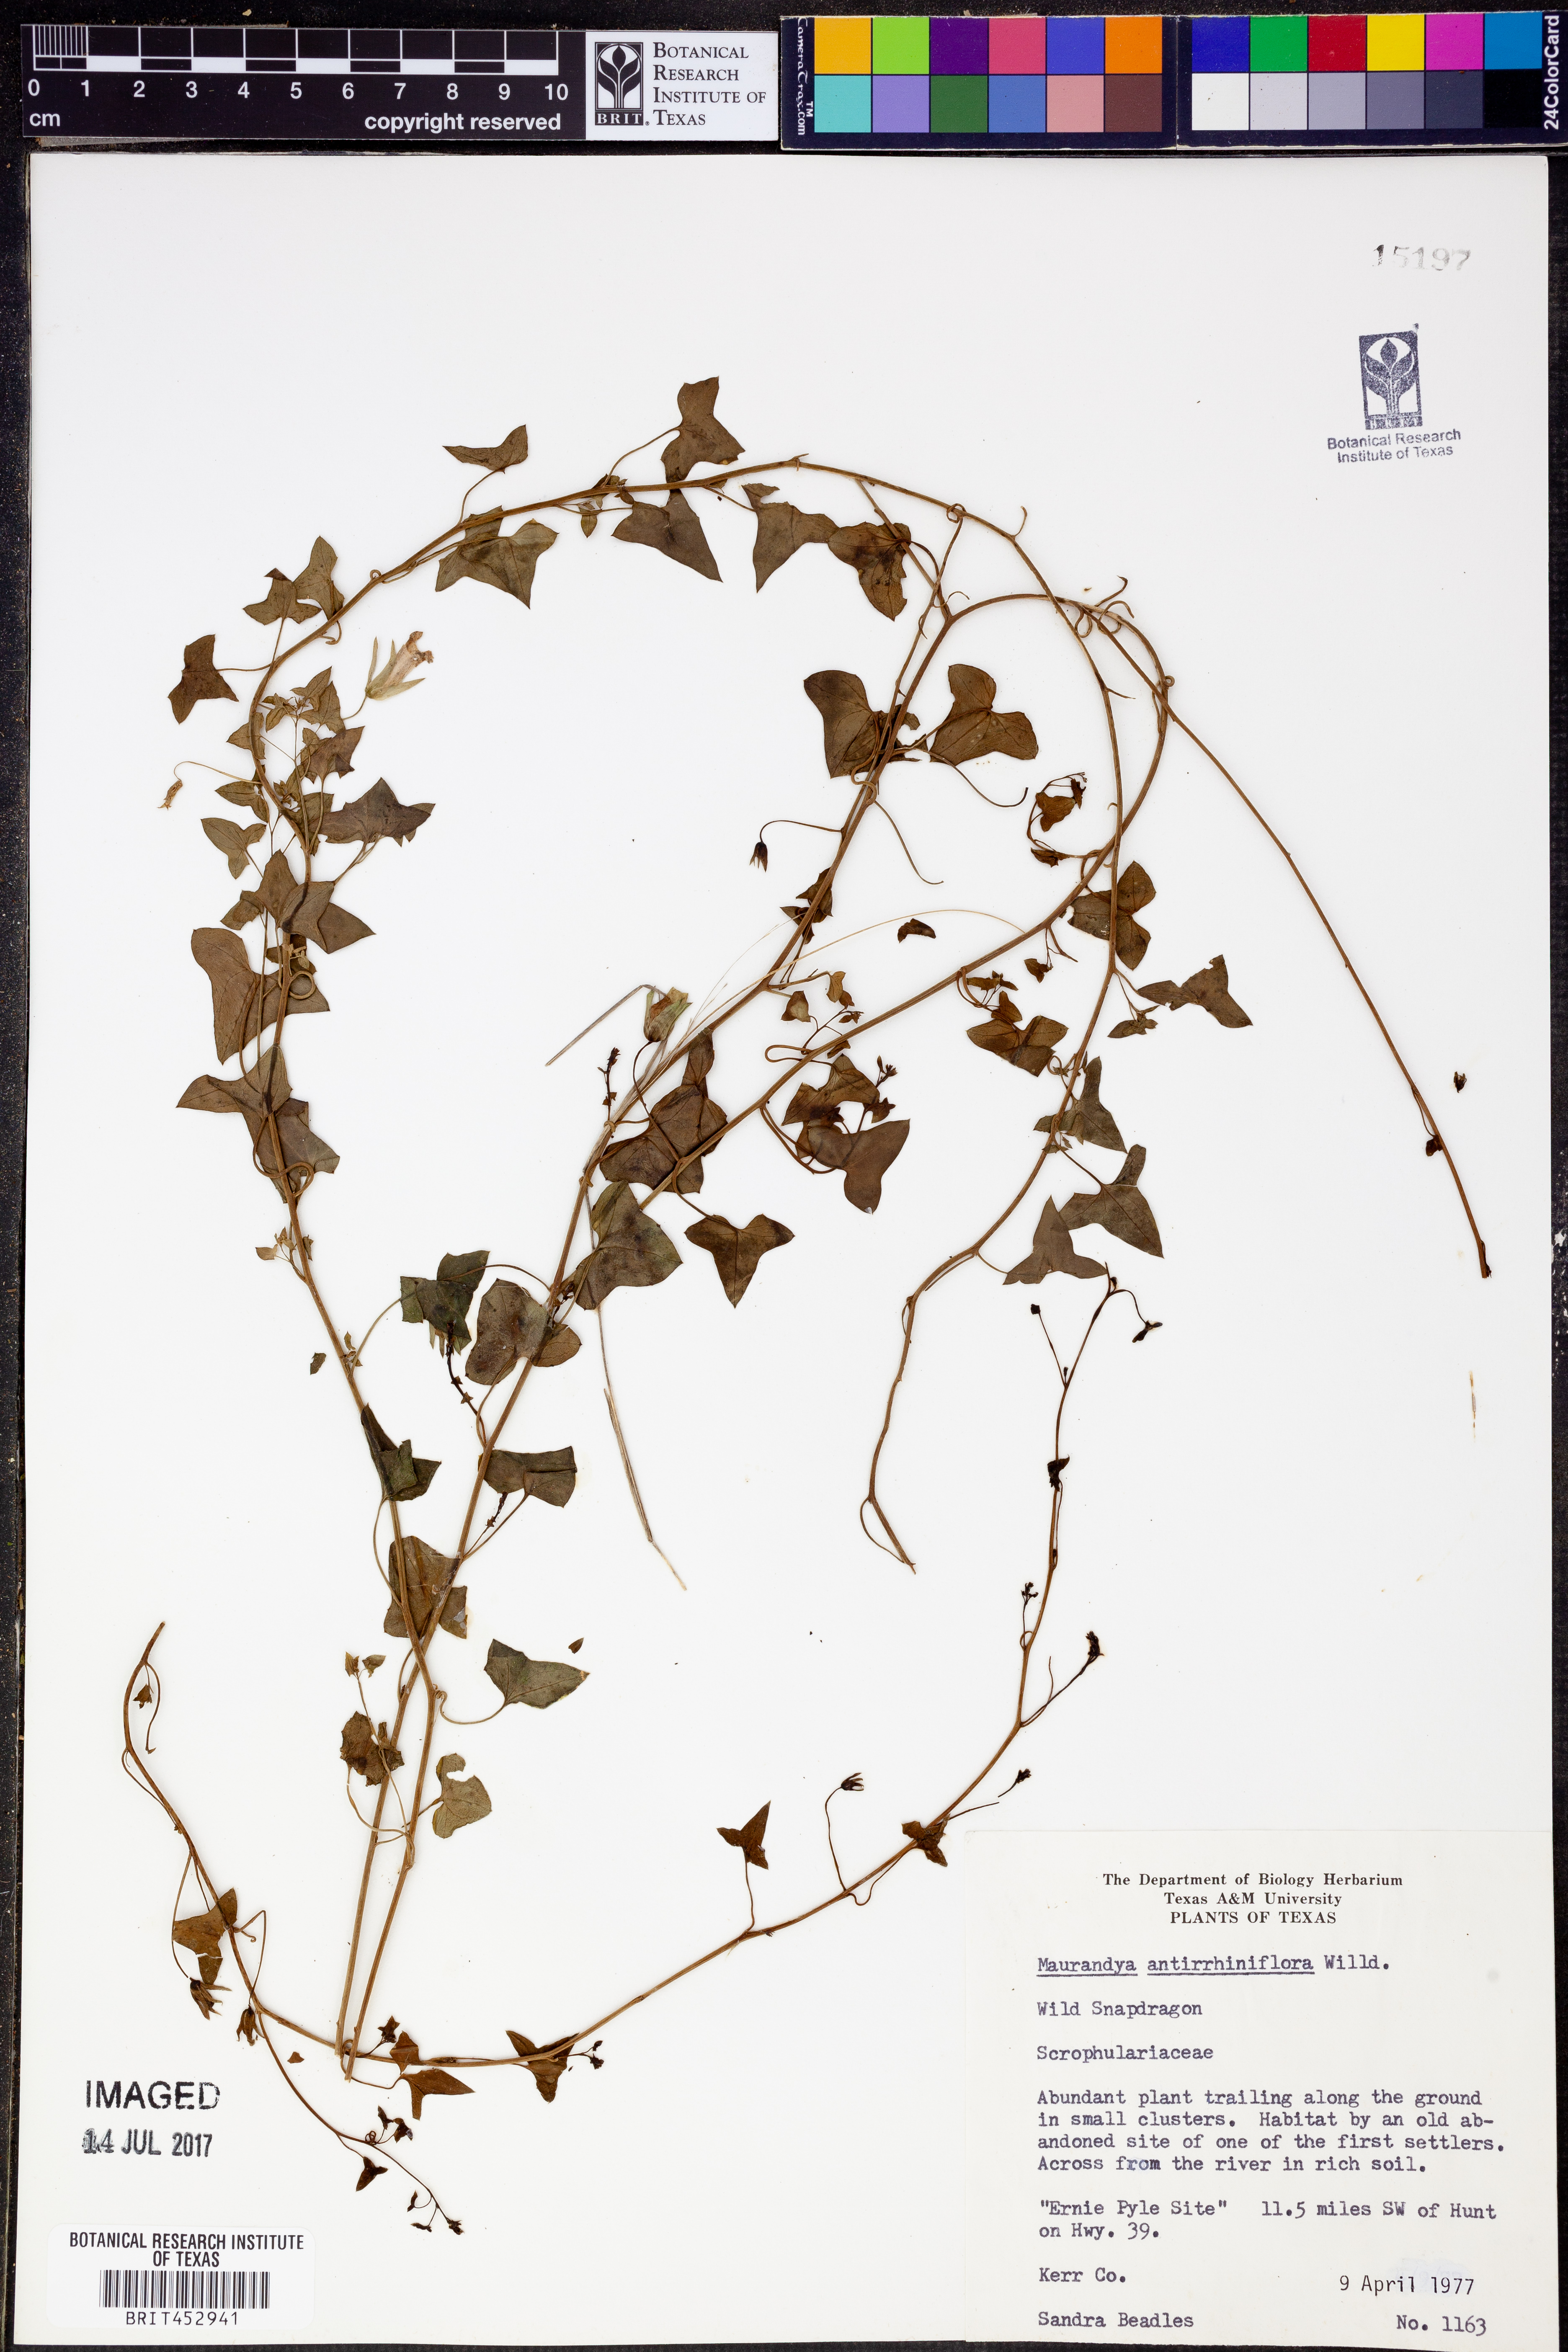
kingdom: Plantae
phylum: Tracheophyta
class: Magnoliopsida
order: Lamiales
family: Plantaginaceae
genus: Maurandella
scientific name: Maurandella antirrhiniflora
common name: Violet twining-snapdragon
